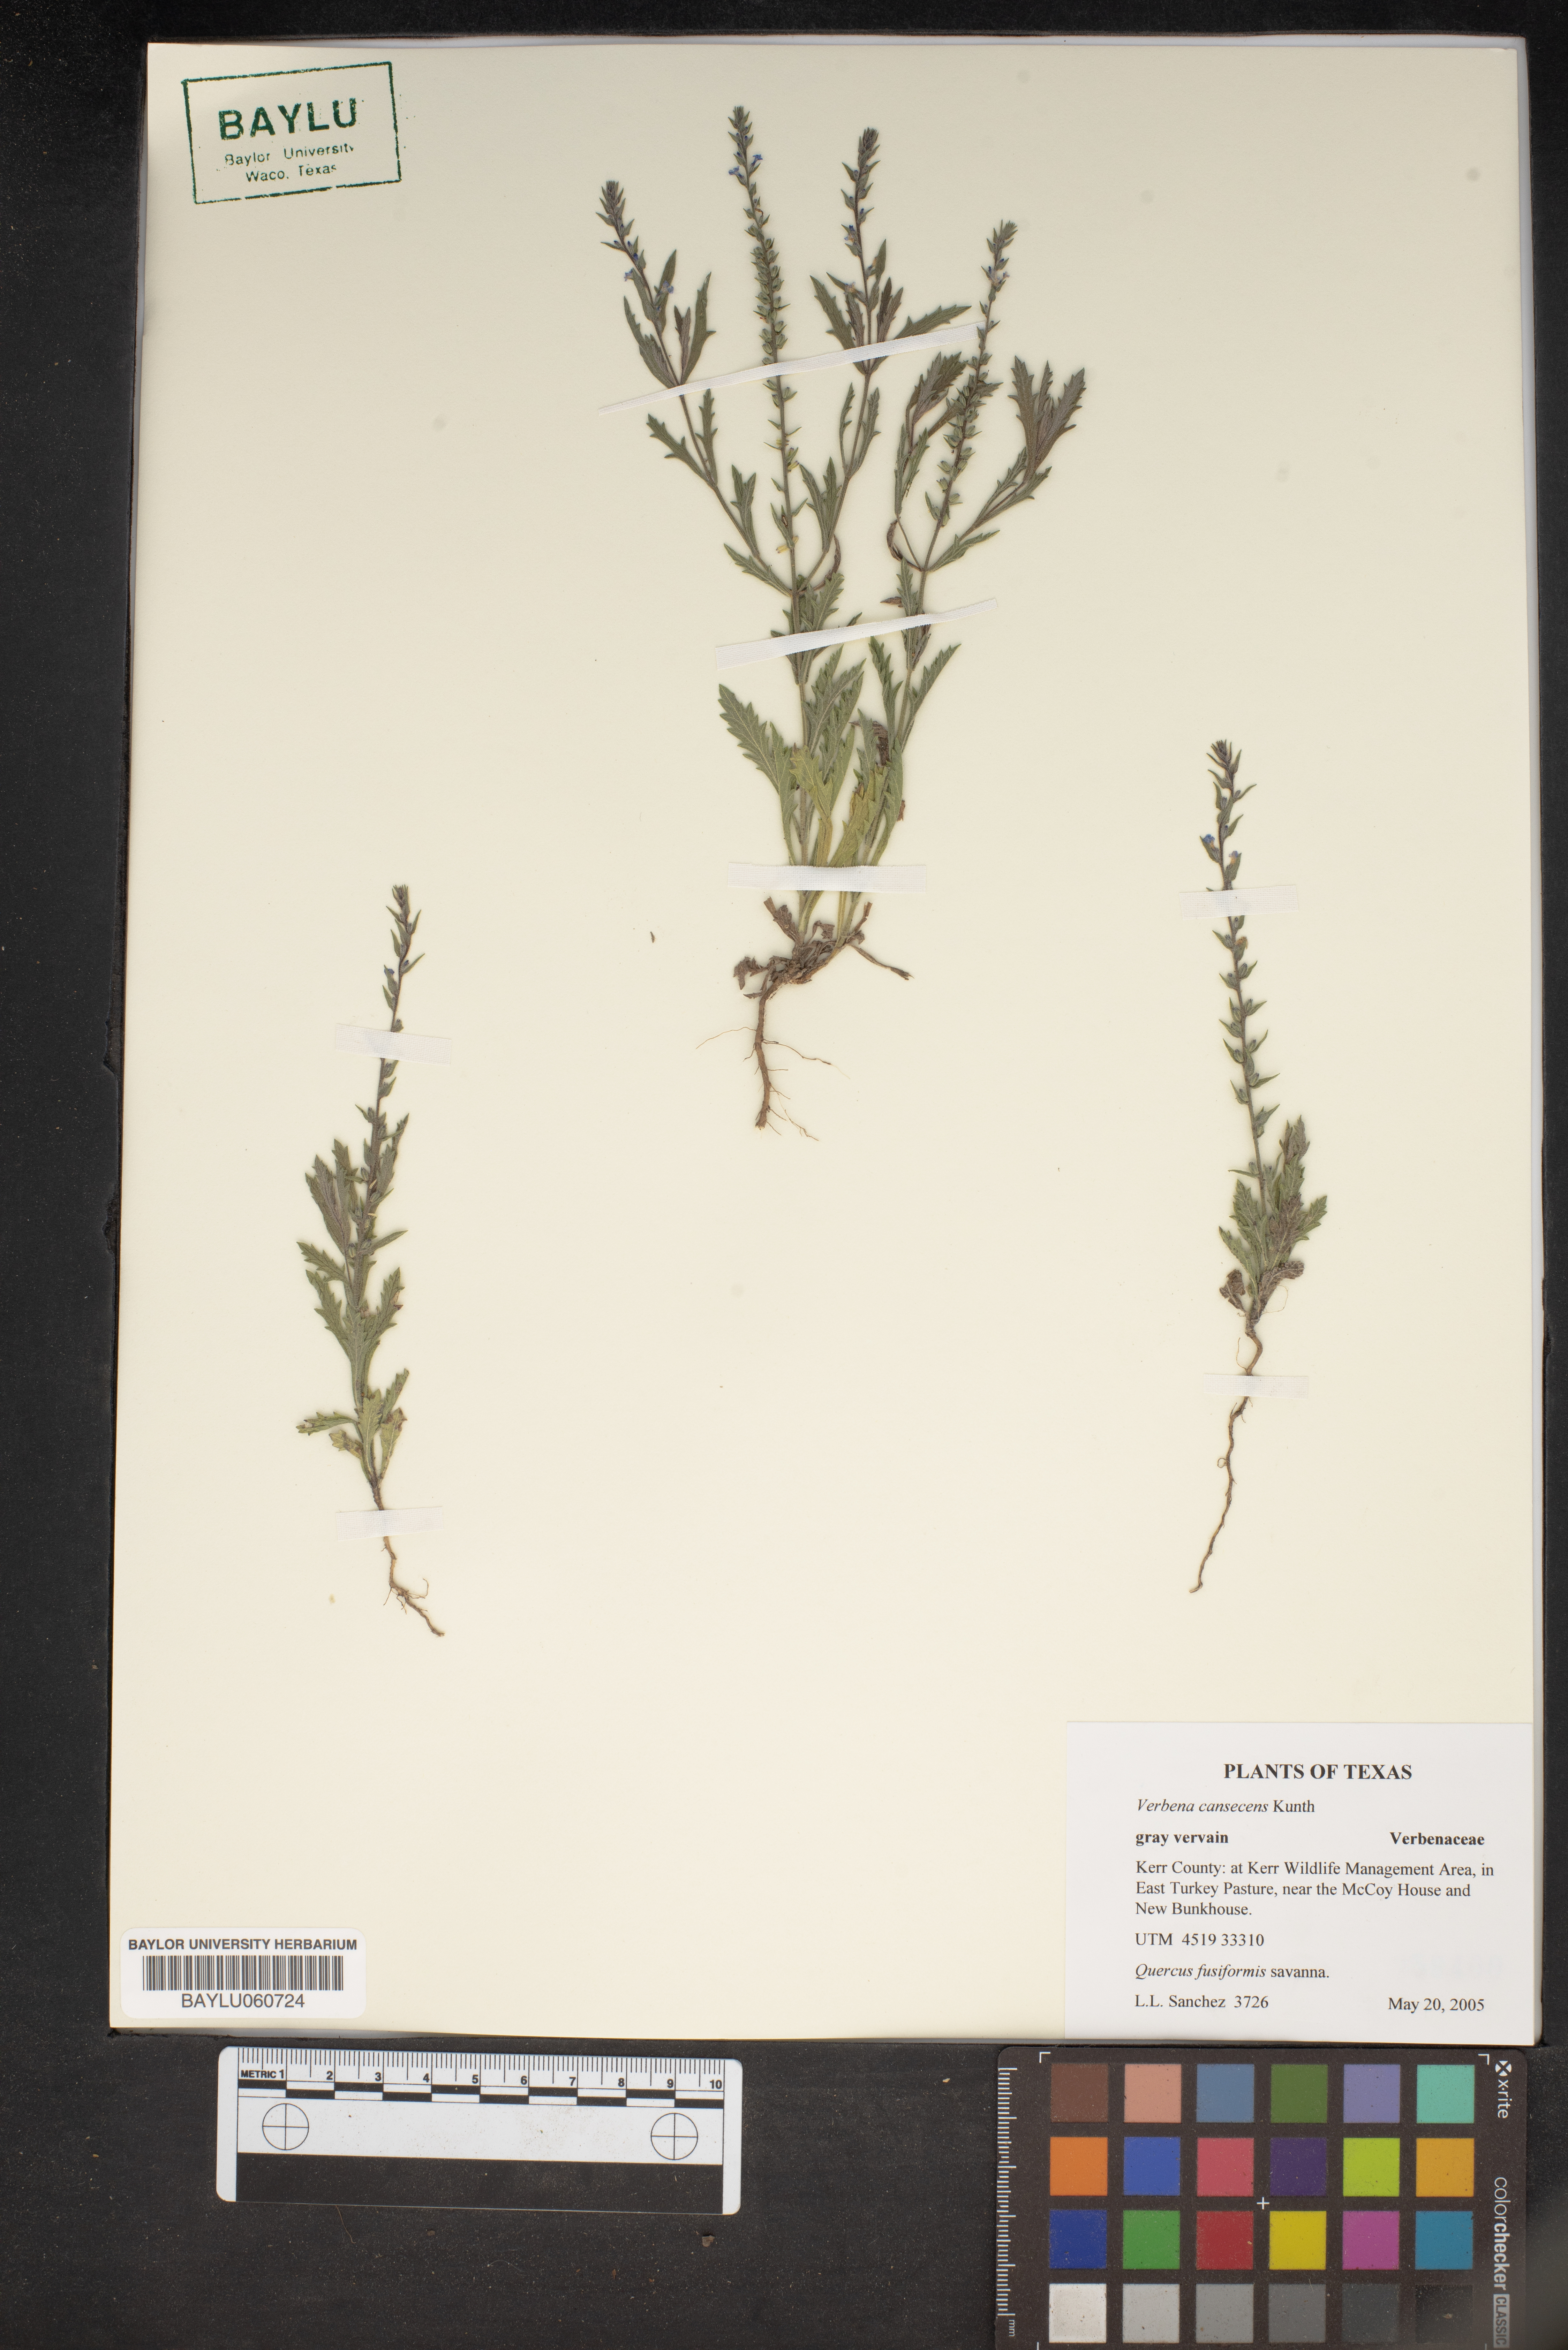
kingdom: Plantae
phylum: Tracheophyta
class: Magnoliopsida
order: Lamiales
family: Verbenaceae
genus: Verbena
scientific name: Verbena canescens
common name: Gray vervain
